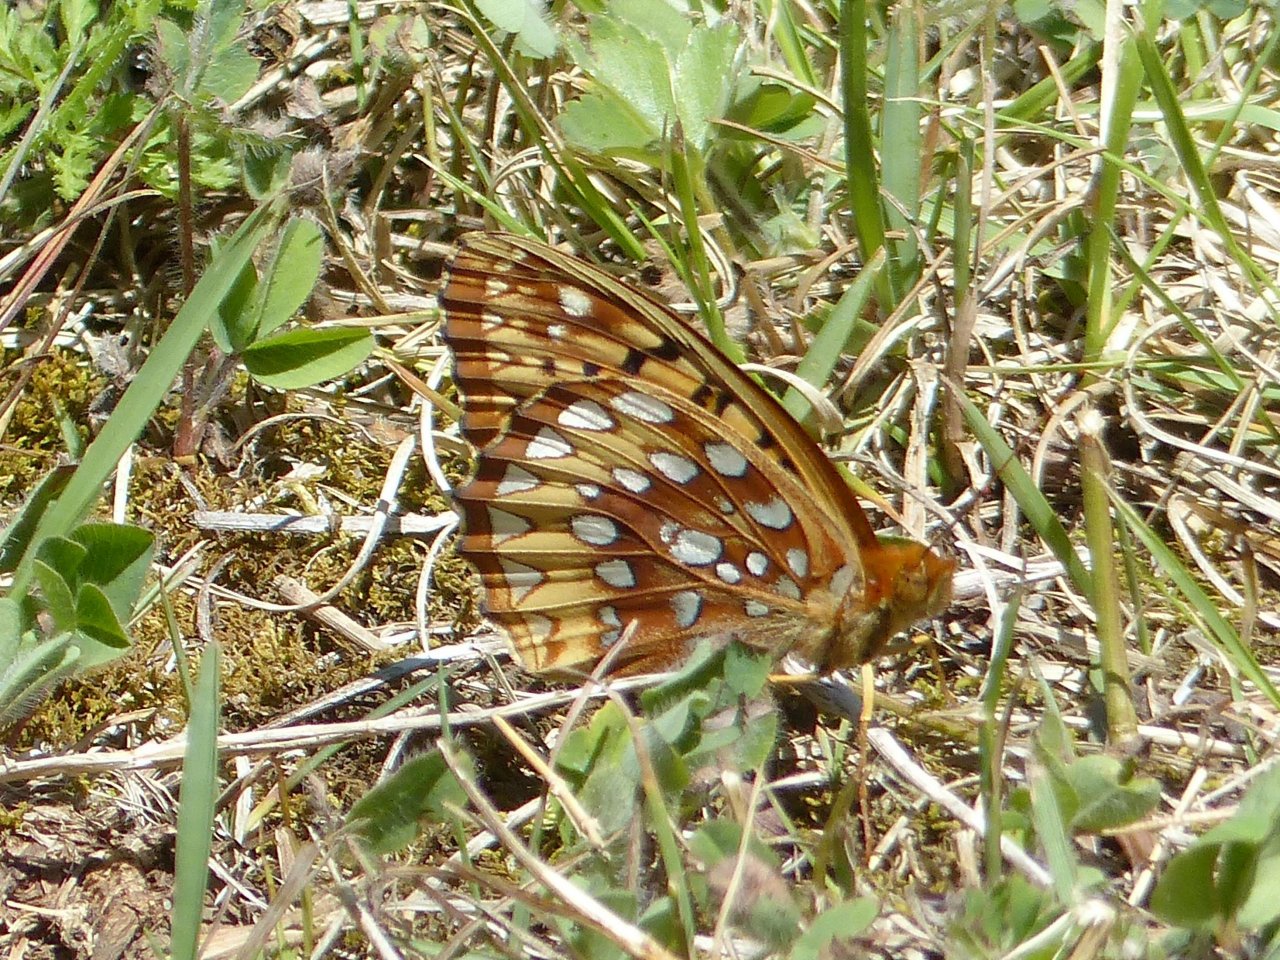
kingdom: Animalia
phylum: Arthropoda
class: Insecta
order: Lepidoptera
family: Nymphalidae
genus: Speyeria
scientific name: Speyeria cybele
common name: Great Spangled Fritillary
